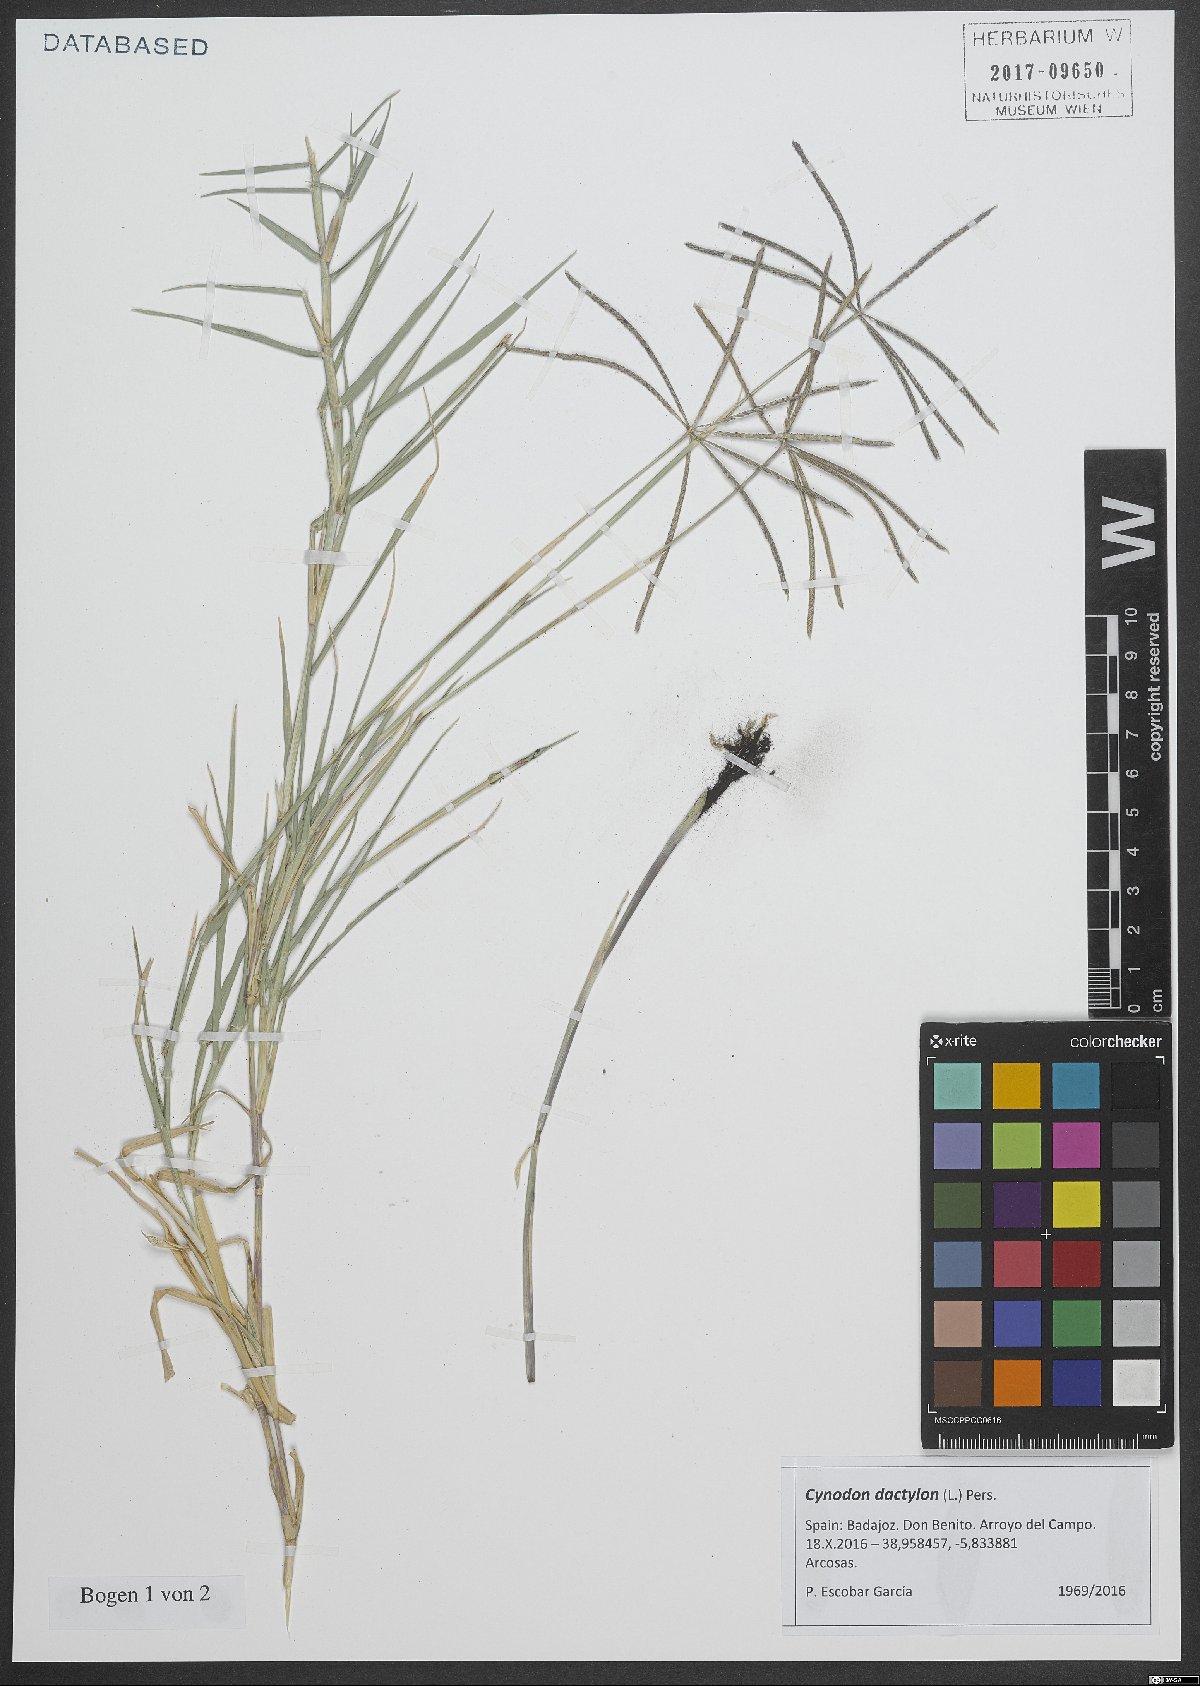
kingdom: Plantae
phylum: Tracheophyta
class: Liliopsida
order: Poales
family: Poaceae
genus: Cynodon
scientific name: Cynodon dactylon
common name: Bermuda grass
